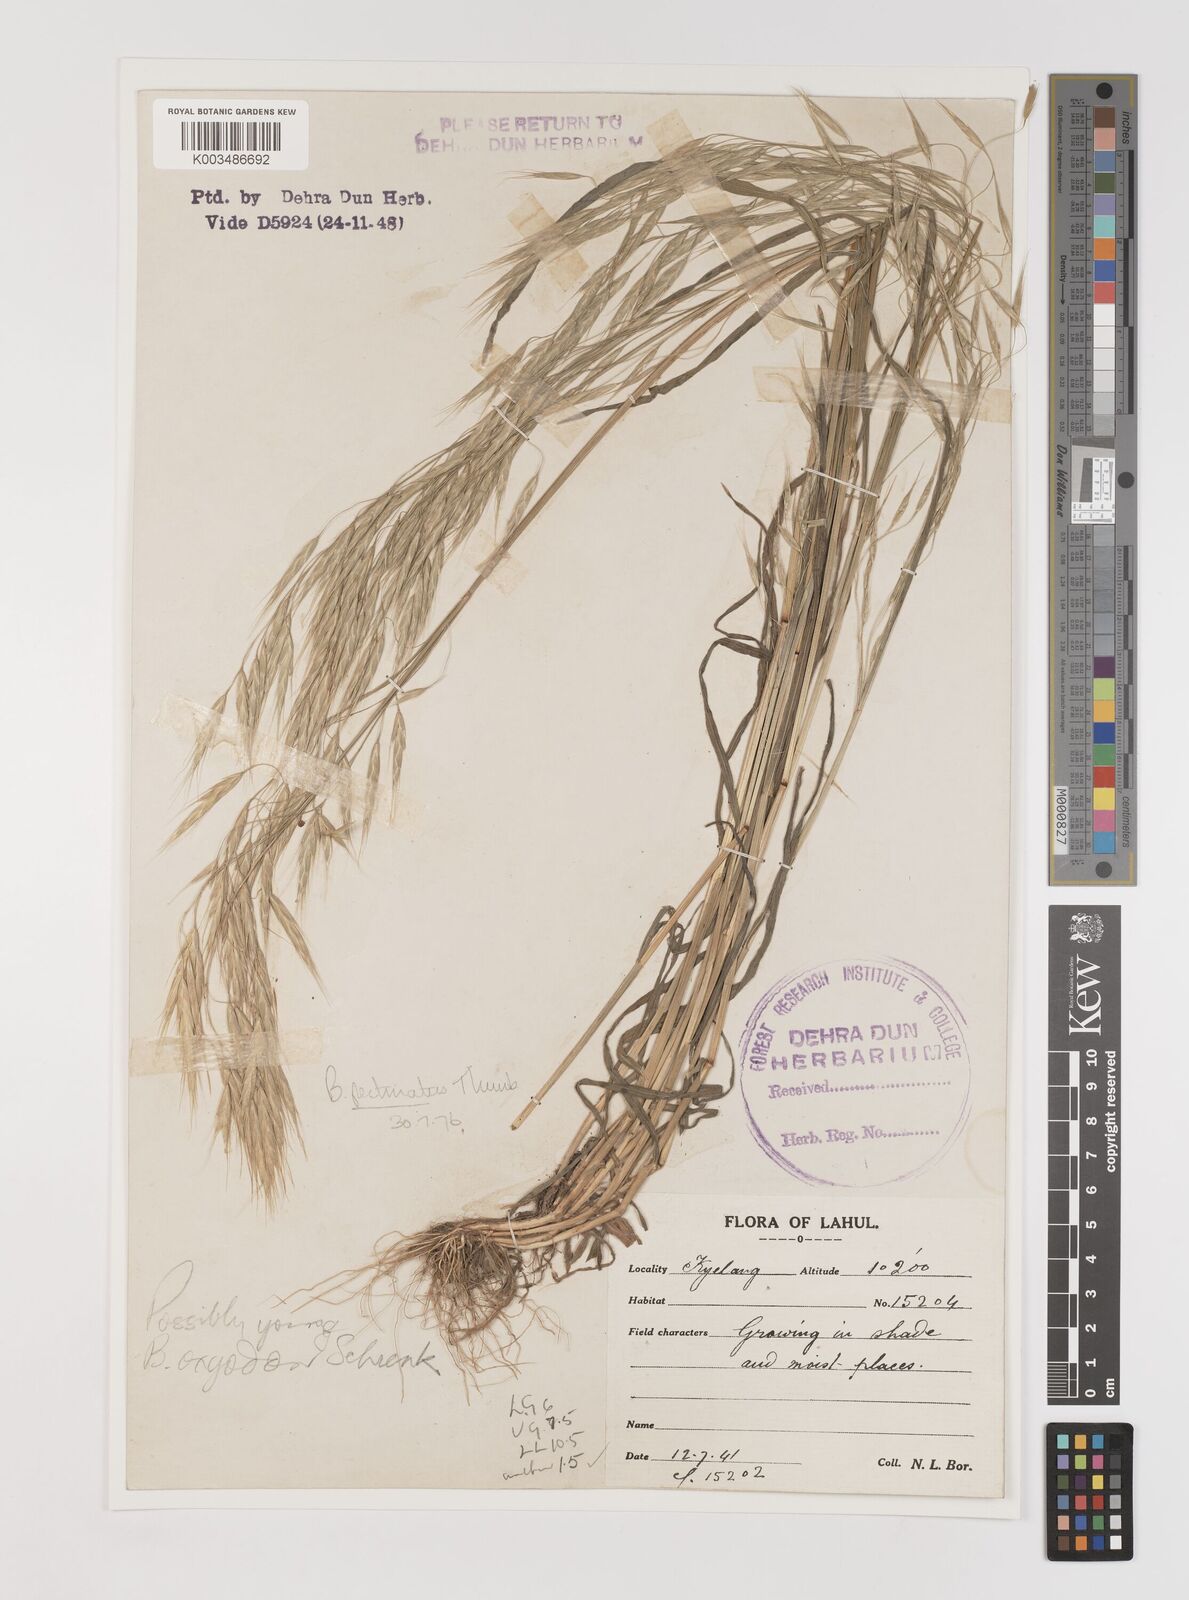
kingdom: Plantae
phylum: Tracheophyta
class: Liliopsida
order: Poales
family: Poaceae
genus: Bromus
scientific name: Bromus pectinatus
